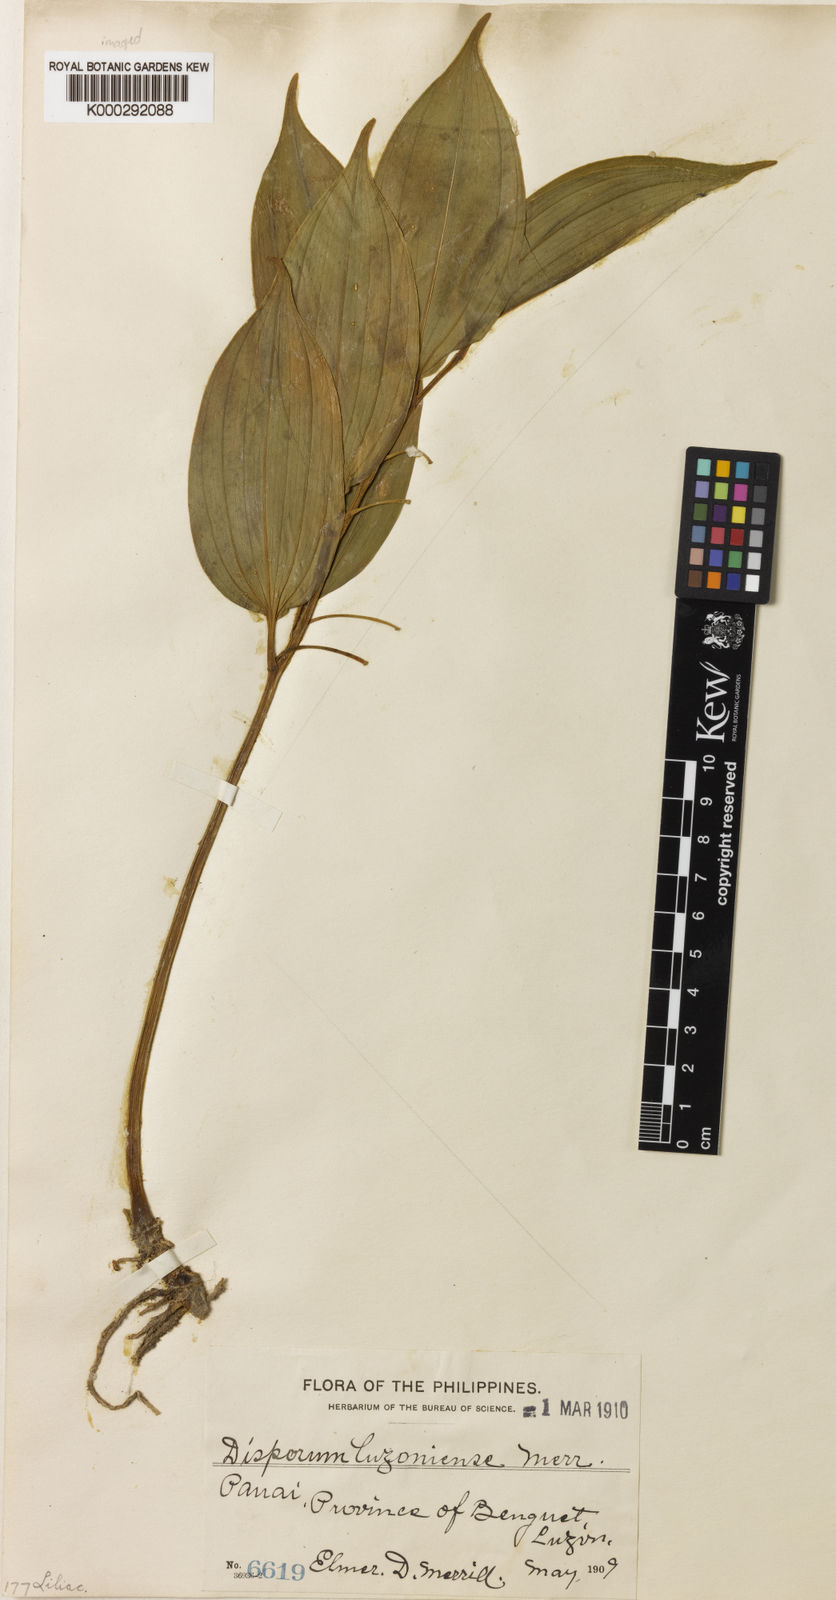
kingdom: Plantae
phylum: Tracheophyta
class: Liliopsida
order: Asparagales
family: Asparagaceae
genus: Disporopsis
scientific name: Disporopsis luzoniensis
